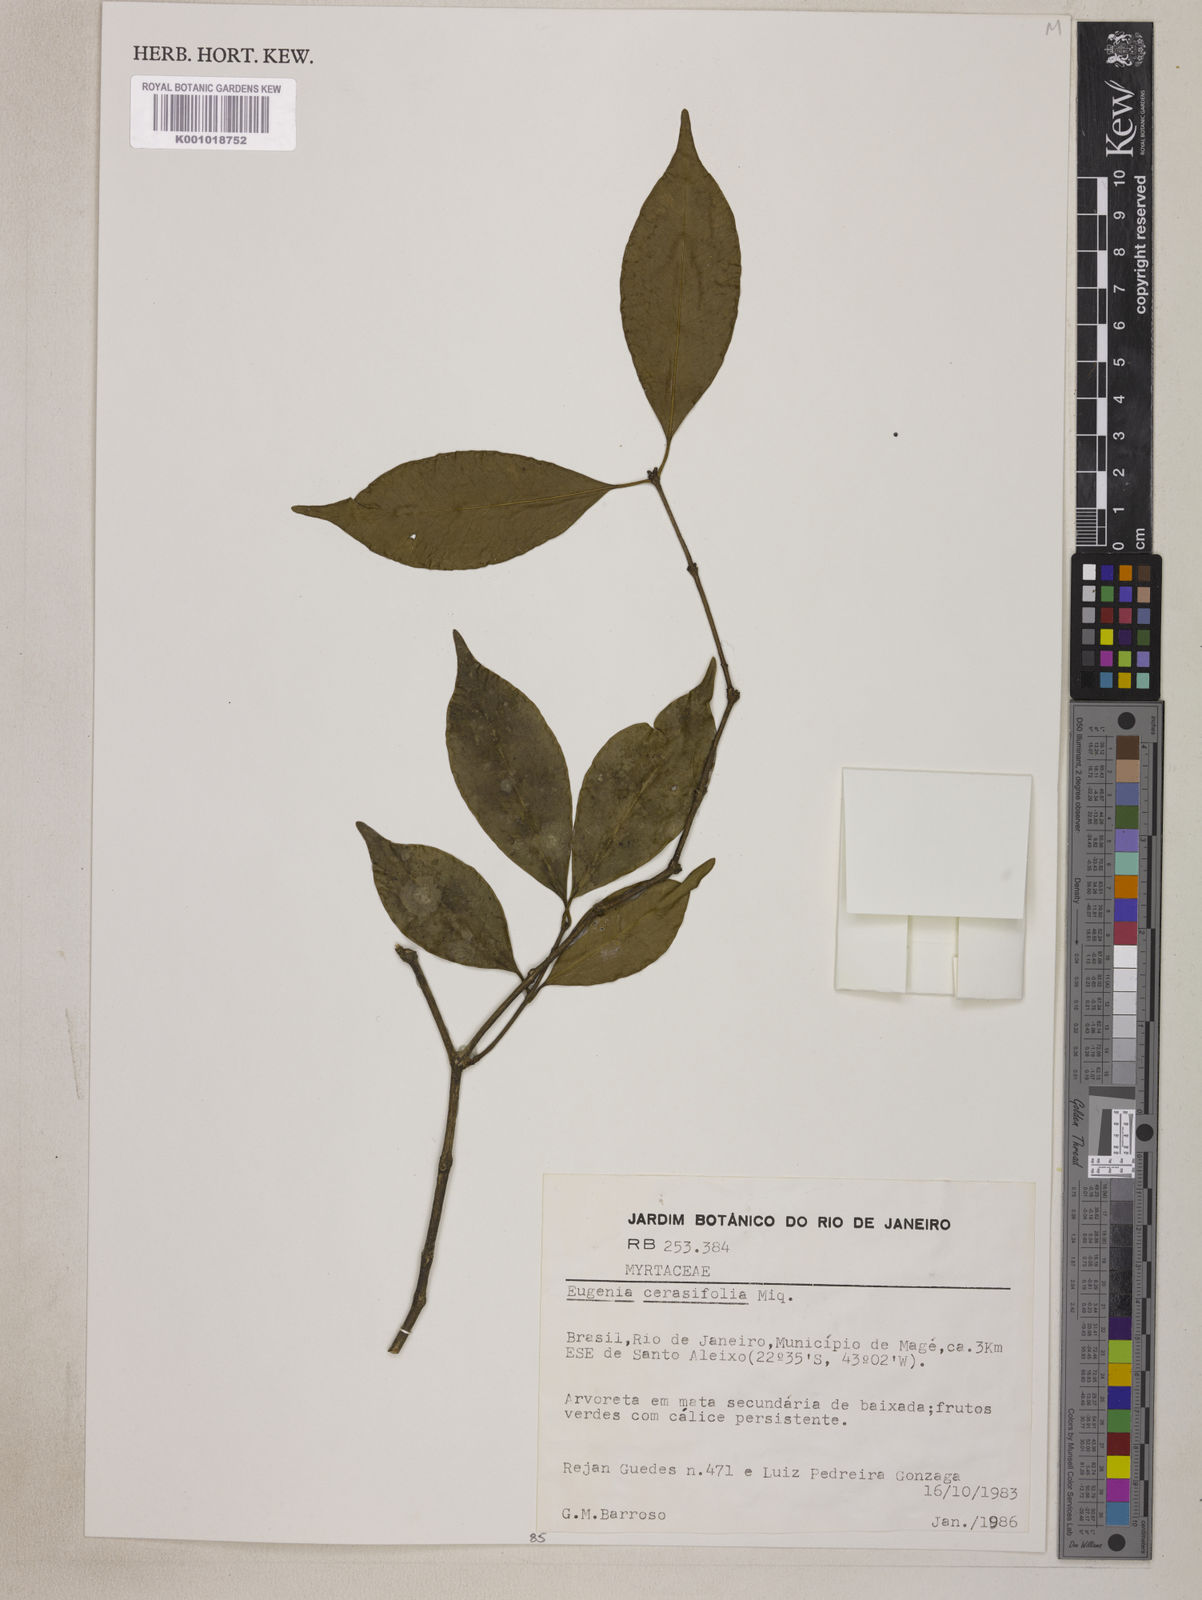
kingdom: Plantae
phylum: Tracheophyta
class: Magnoliopsida
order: Myrtales
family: Myrtaceae
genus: Eugenia
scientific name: Eugenia
